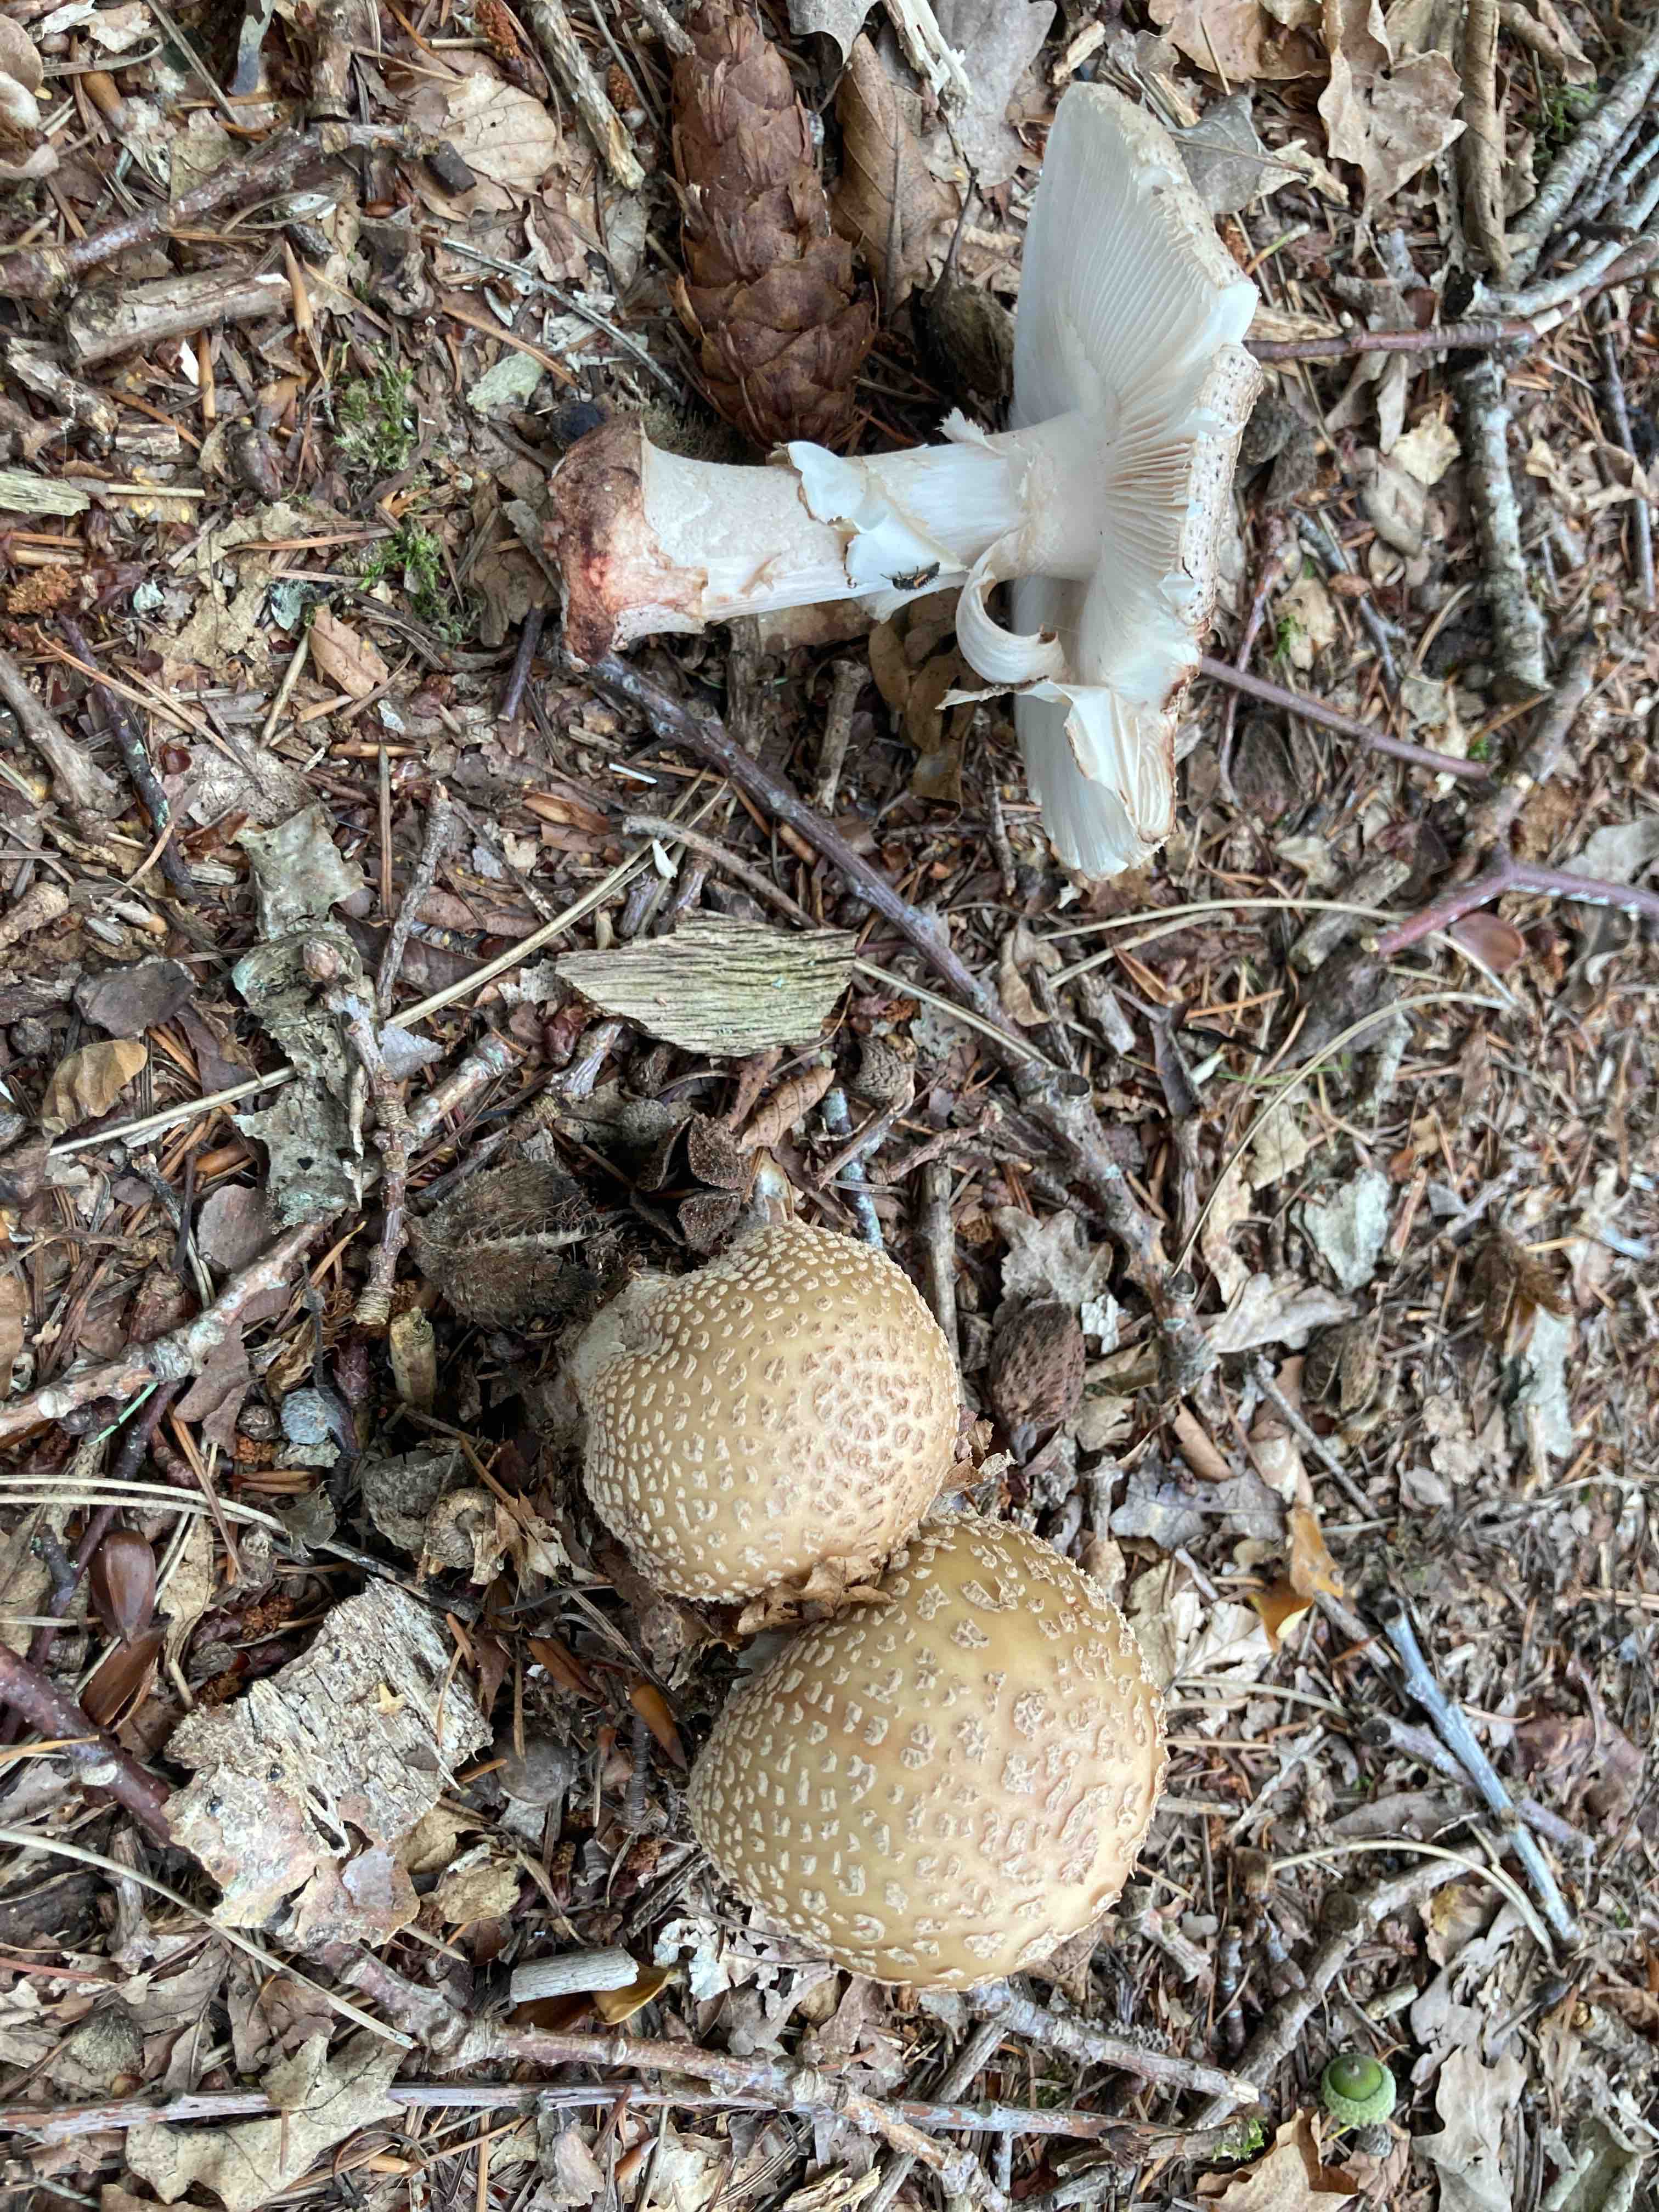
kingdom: Fungi
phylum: Basidiomycota
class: Agaricomycetes
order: Agaricales
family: Amanitaceae
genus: Amanita
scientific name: Amanita rubescens
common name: rødmende fluesvamp
